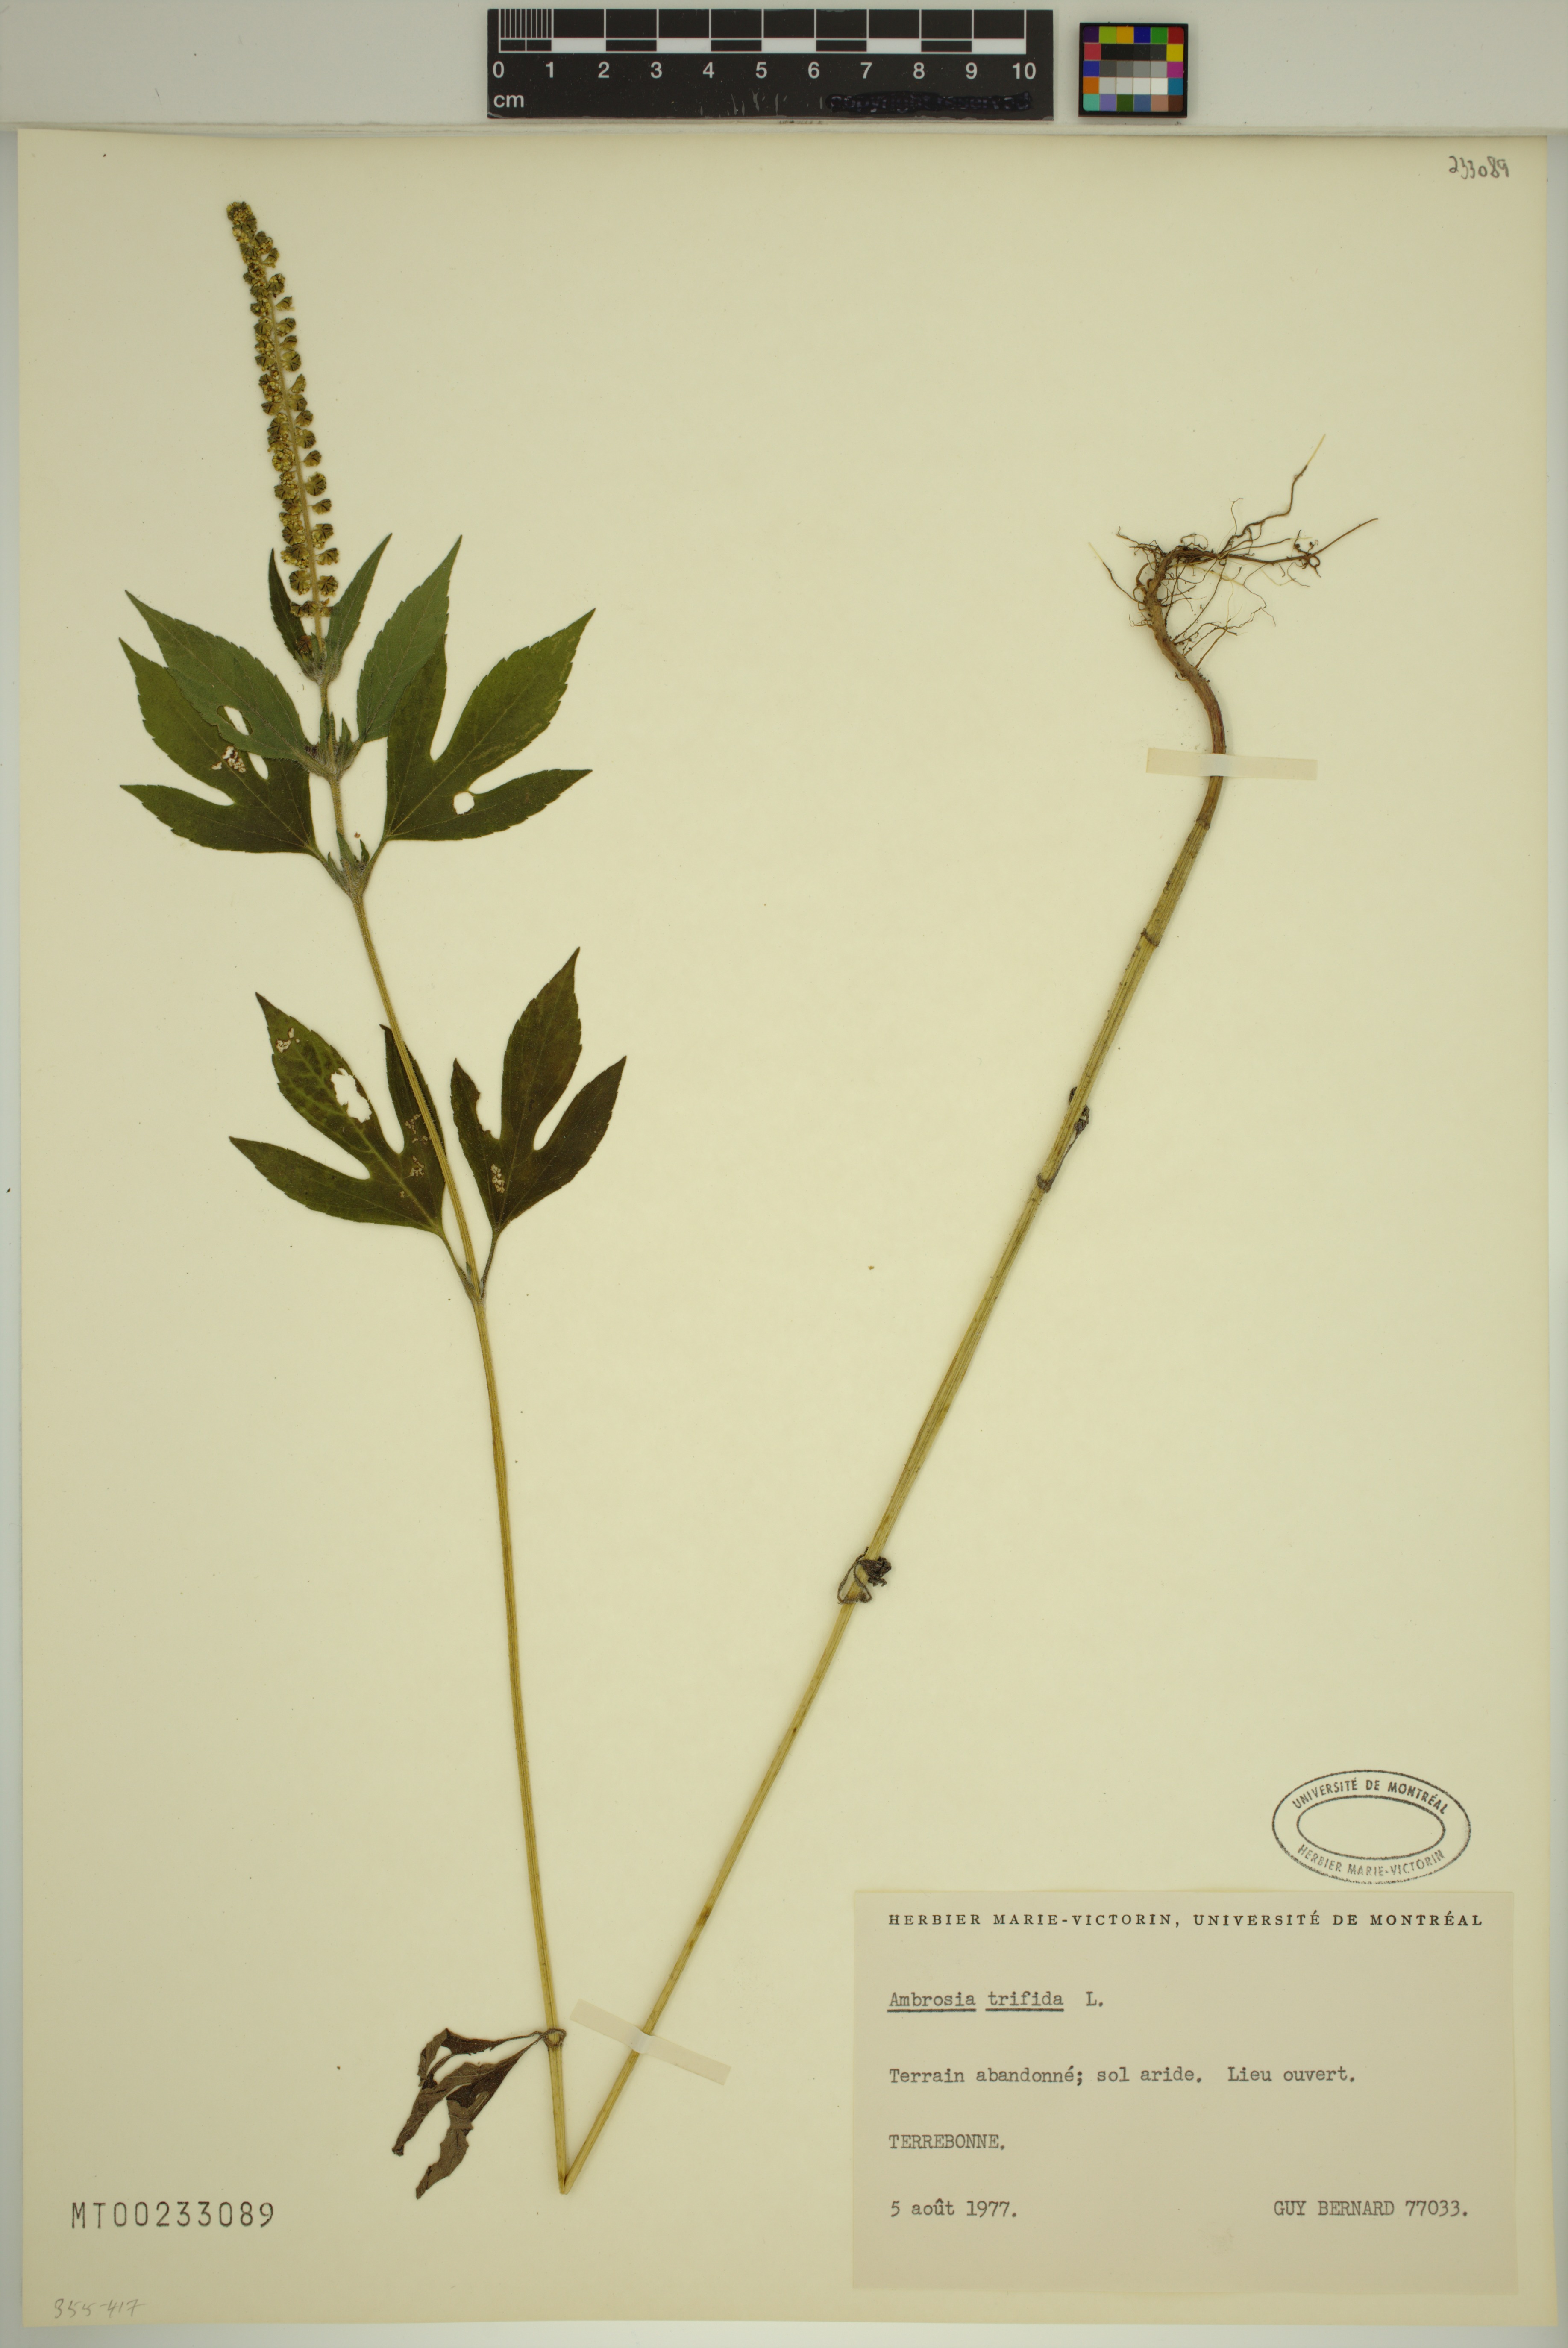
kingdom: Plantae
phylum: Tracheophyta
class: Magnoliopsida
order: Asterales
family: Asteraceae
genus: Ambrosia
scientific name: Ambrosia trifida
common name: Giant ragweed
